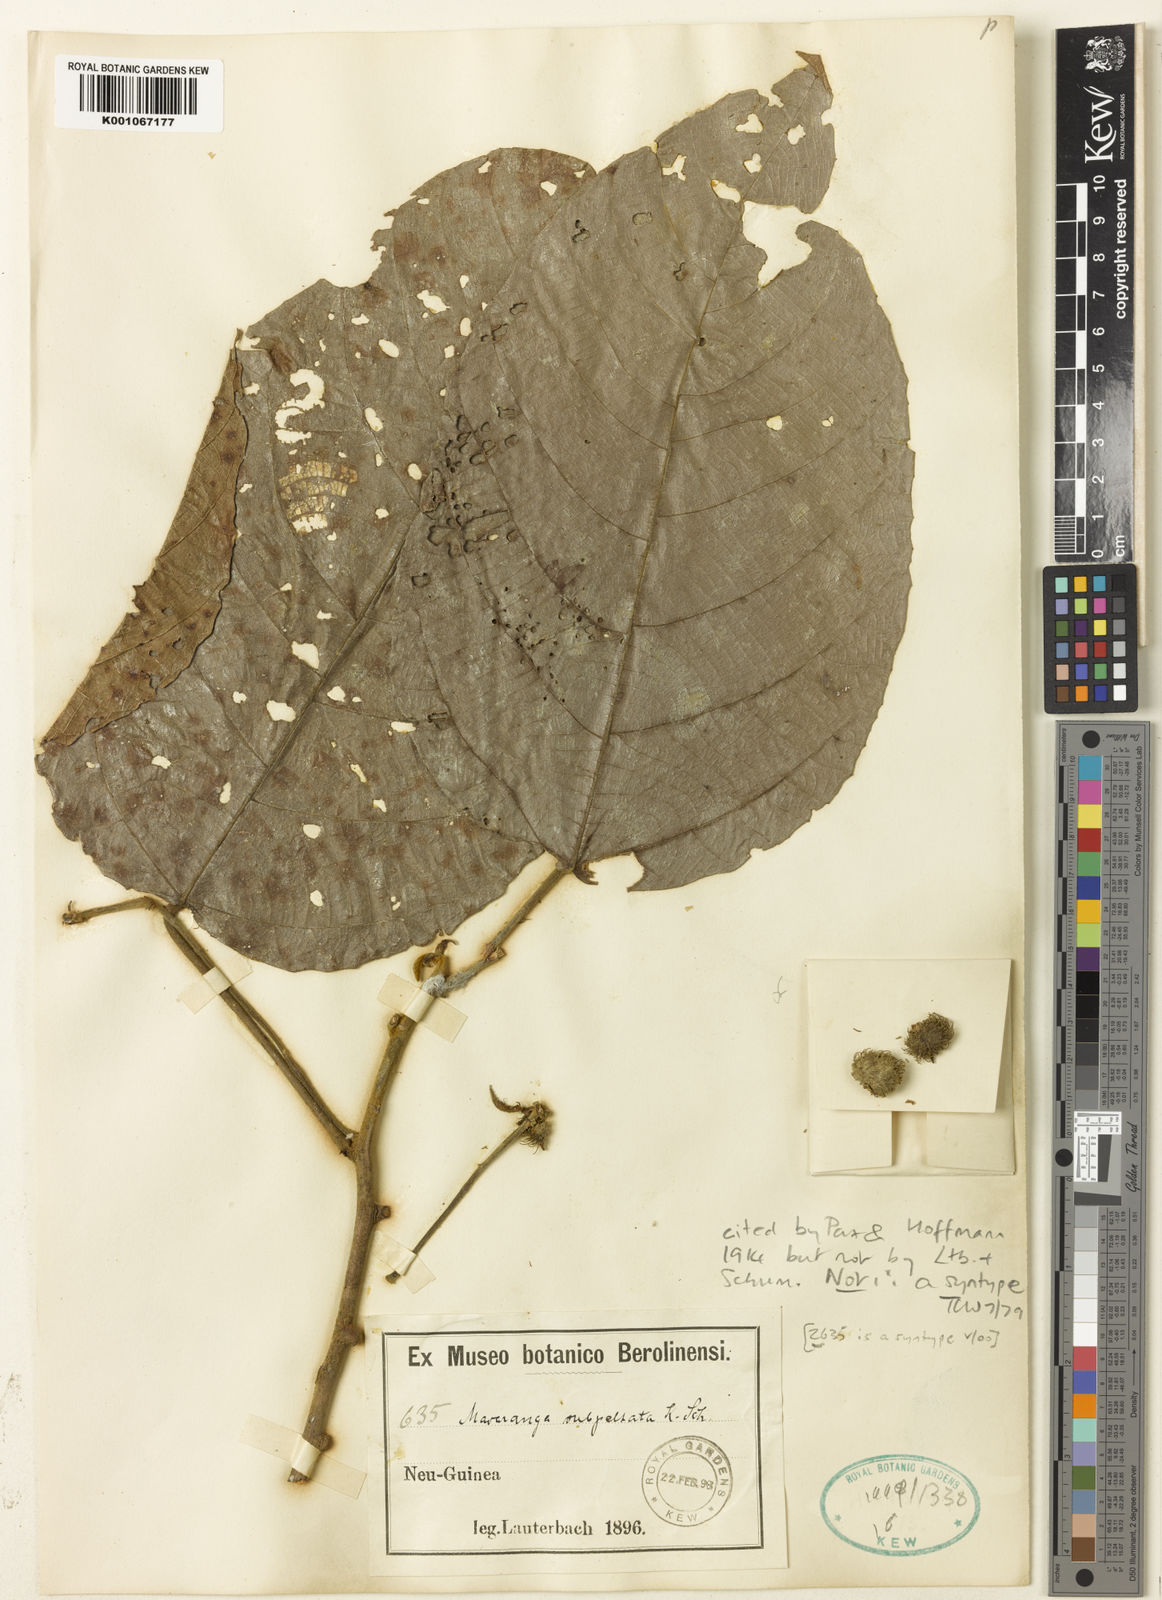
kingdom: Plantae
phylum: Tracheophyta
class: Magnoliopsida
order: Malpighiales
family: Euphorbiaceae
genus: Macaranga
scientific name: Macaranga subpeltata
